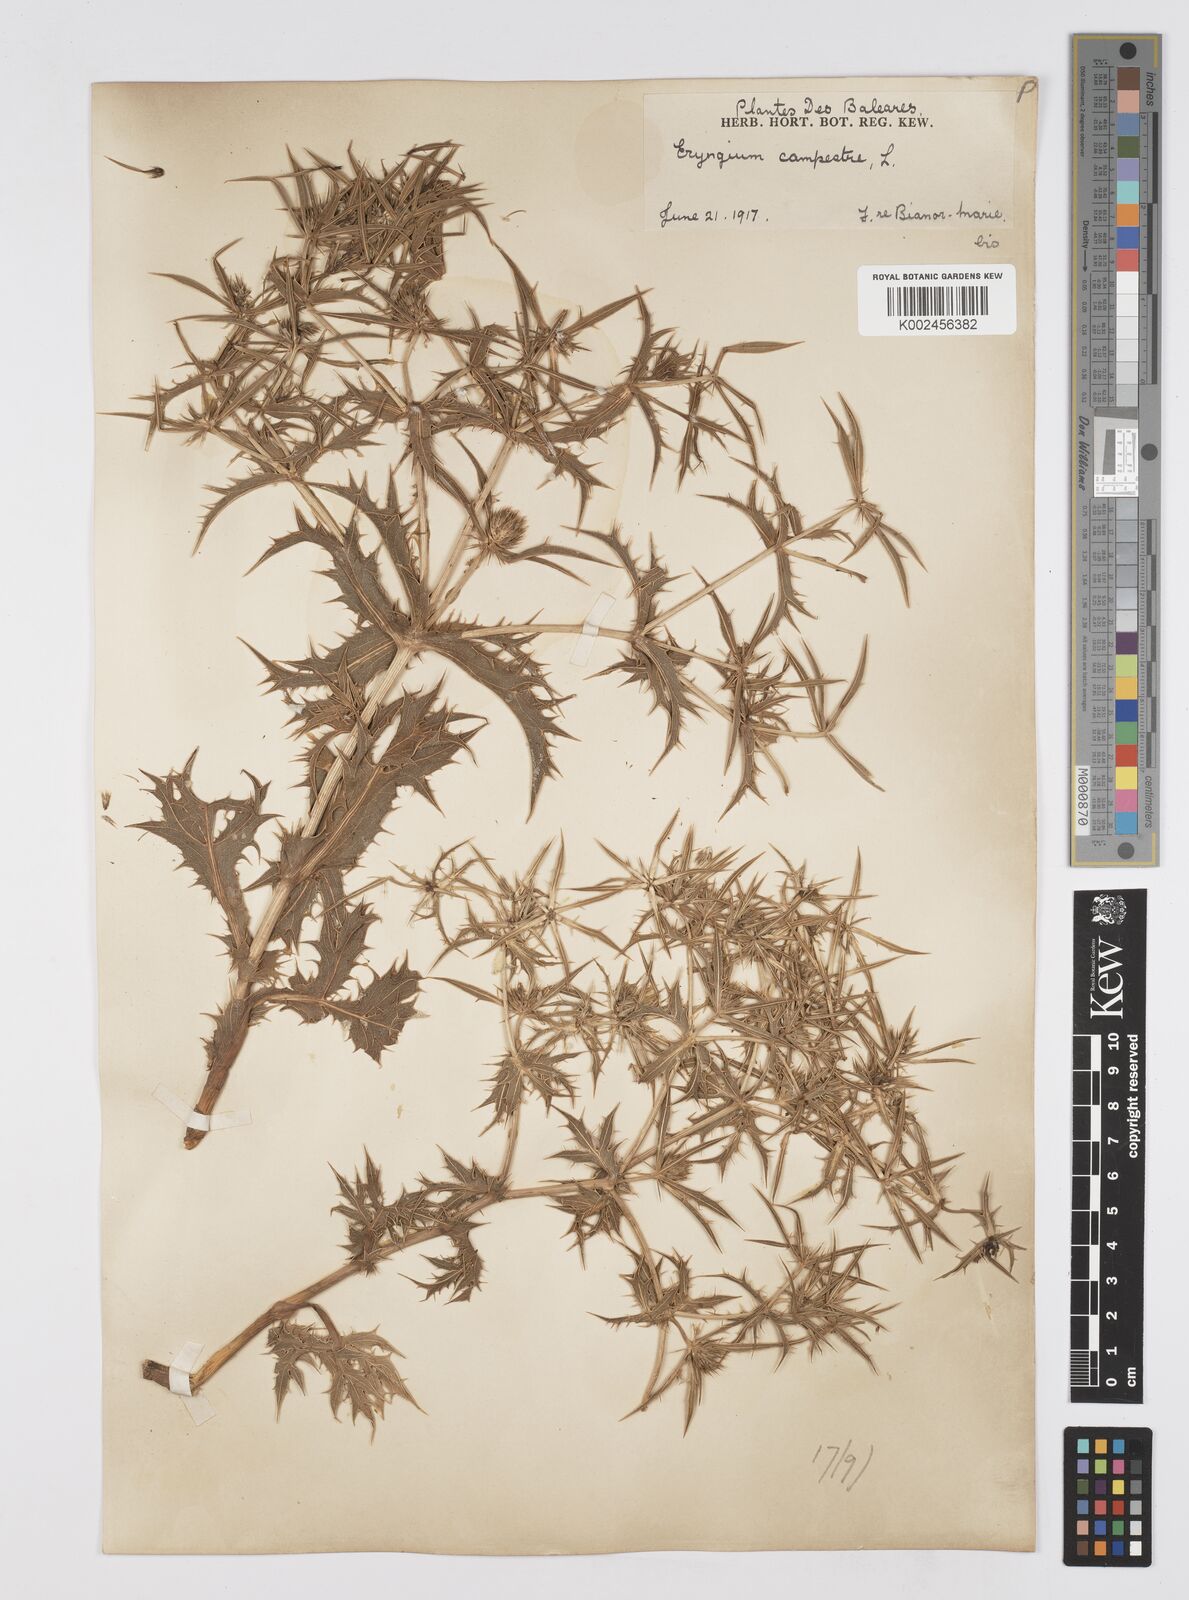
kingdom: Plantae
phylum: Tracheophyta
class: Magnoliopsida
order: Apiales
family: Apiaceae
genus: Eryngium
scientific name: Eryngium campestre
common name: Field eryngo
